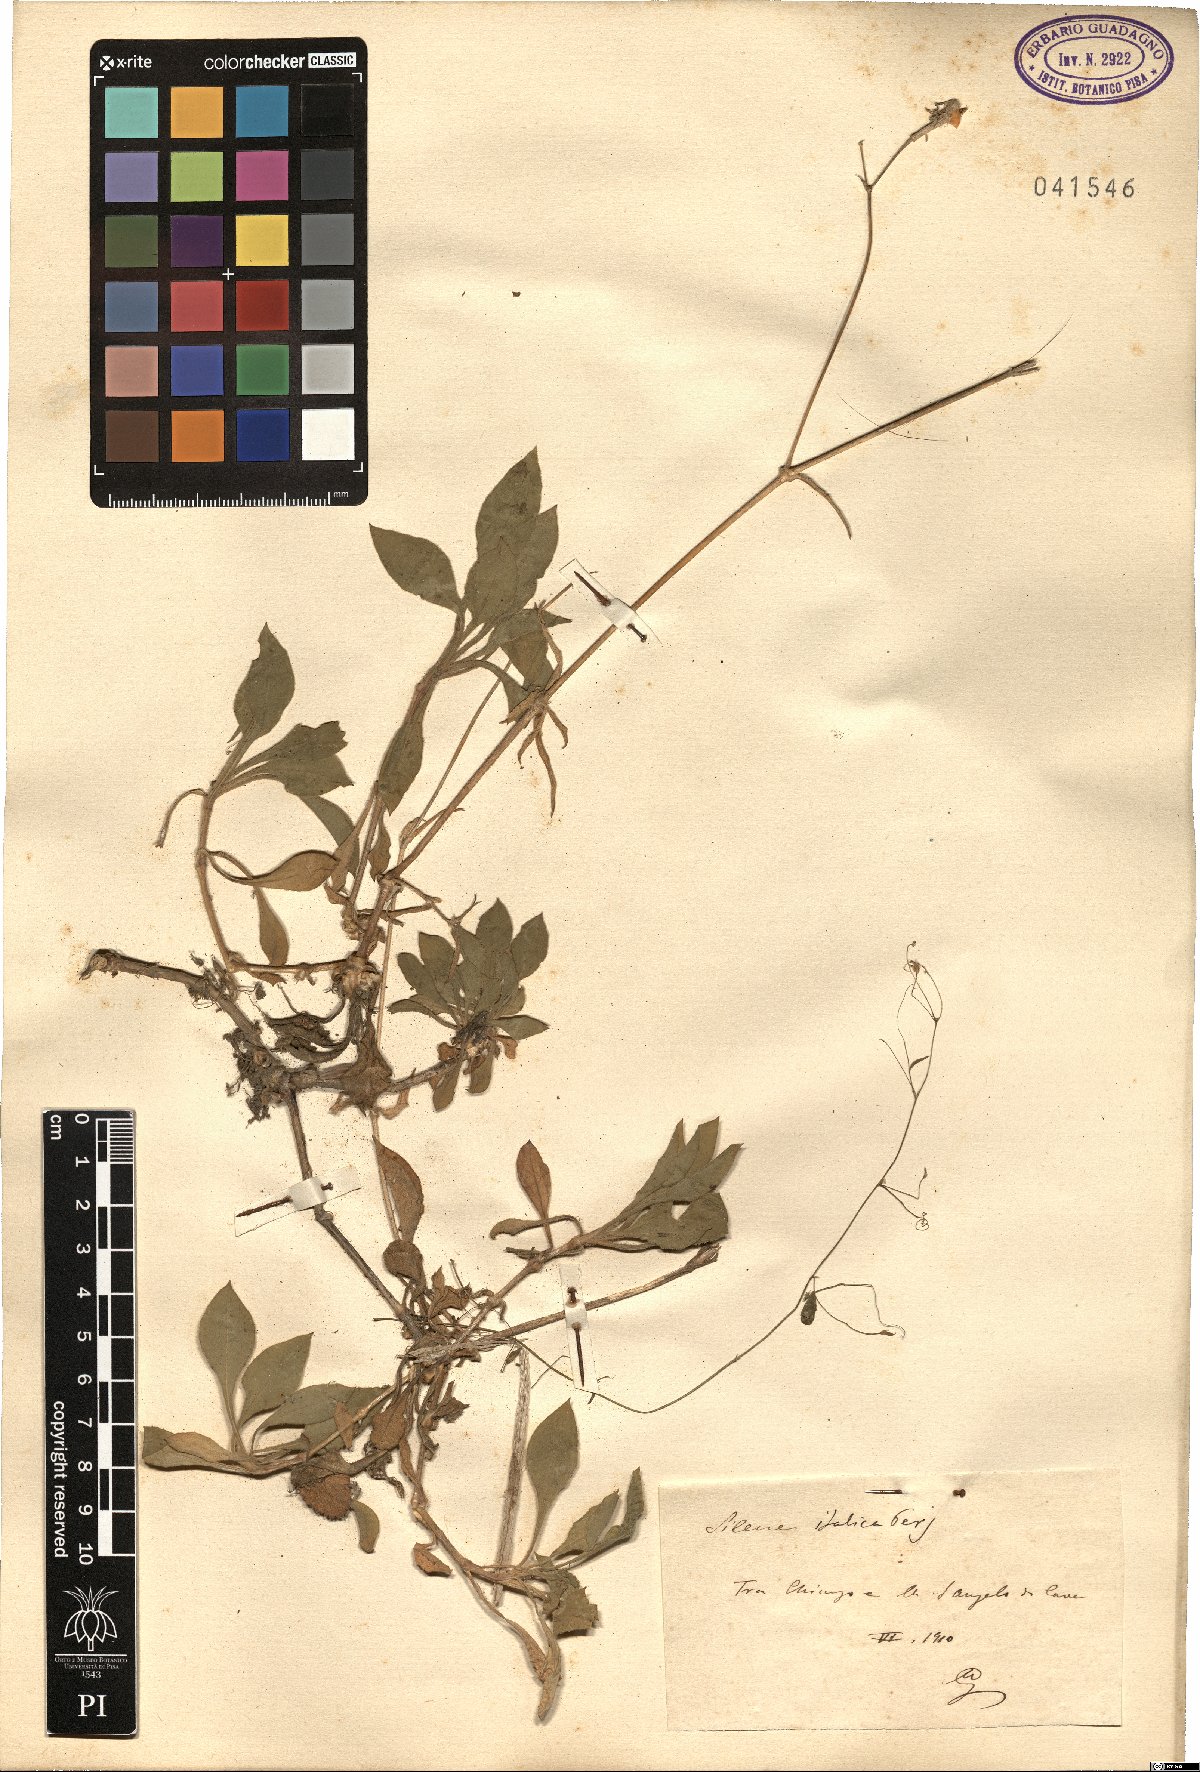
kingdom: Plantae
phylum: Tracheophyta
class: Magnoliopsida
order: Caryophyllales
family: Caryophyllaceae
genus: Silene
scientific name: Silene italica
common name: Italian catchfly
